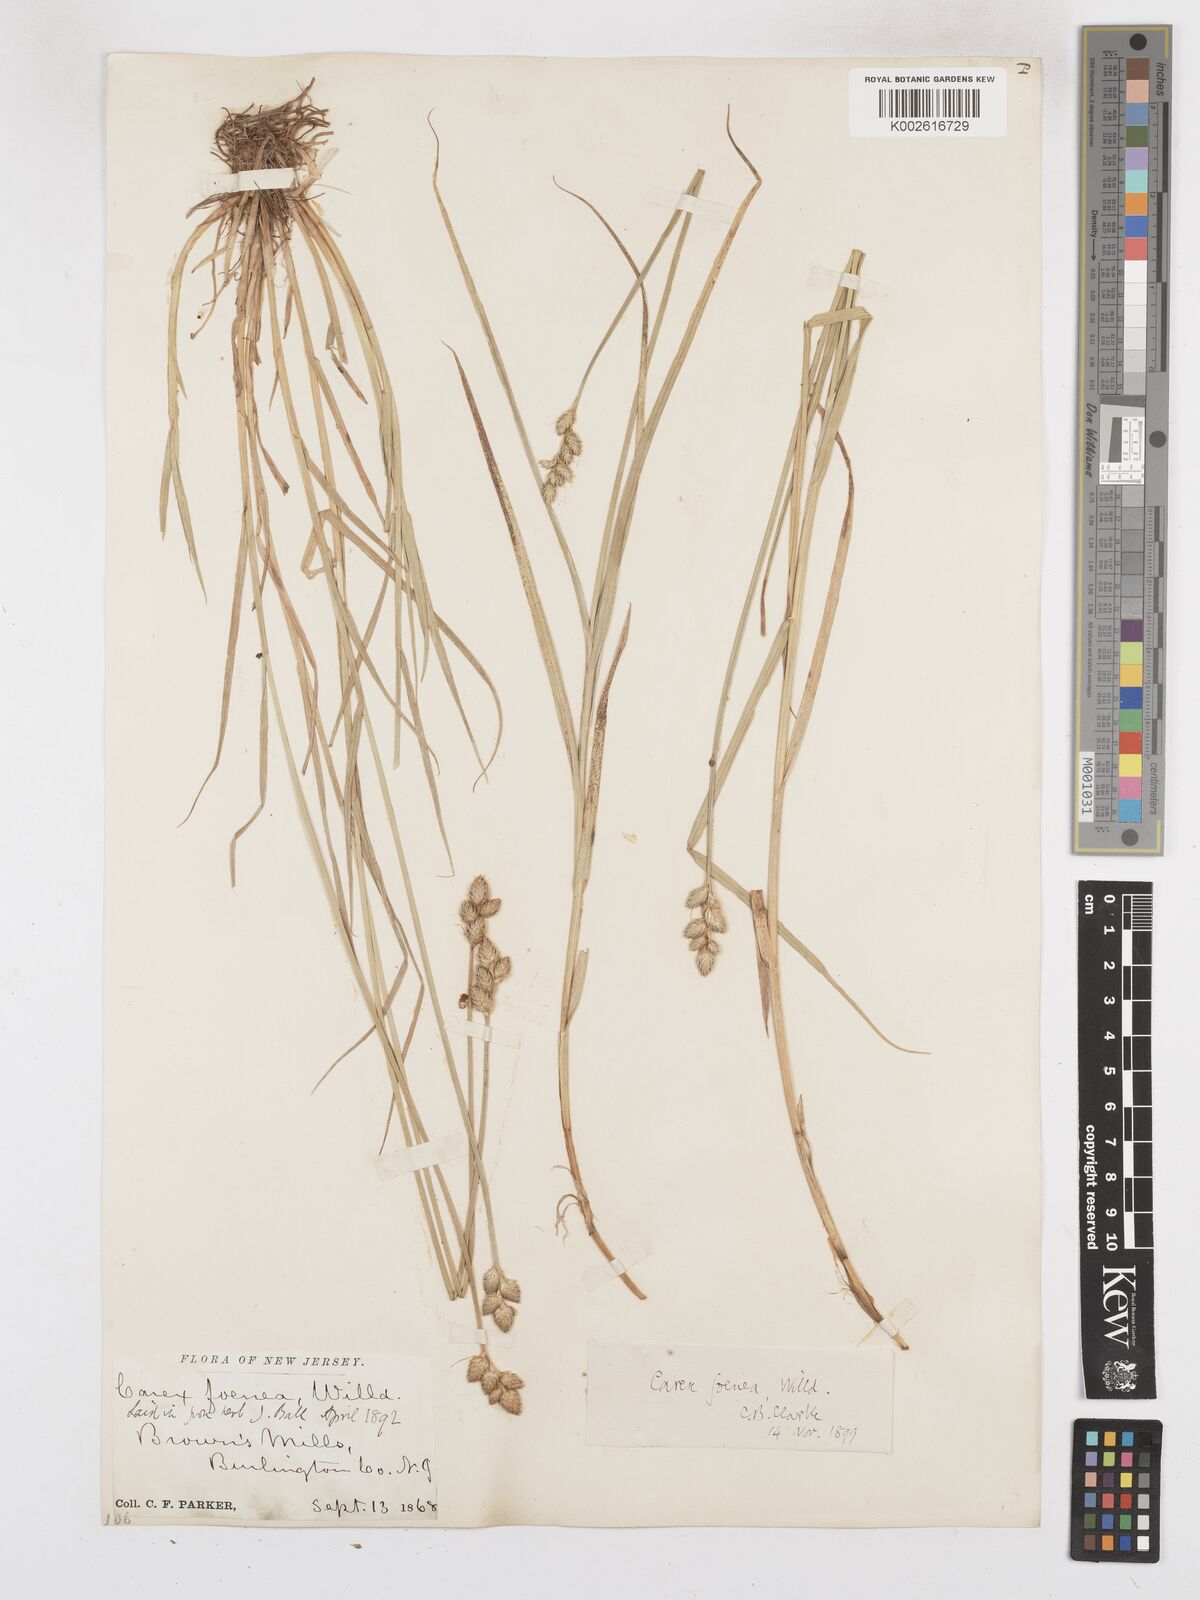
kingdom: Plantae
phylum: Tracheophyta
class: Liliopsida
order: Poales
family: Cyperaceae
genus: Carex
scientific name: Carex argyrantha
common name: Silvery-flowered sedge
